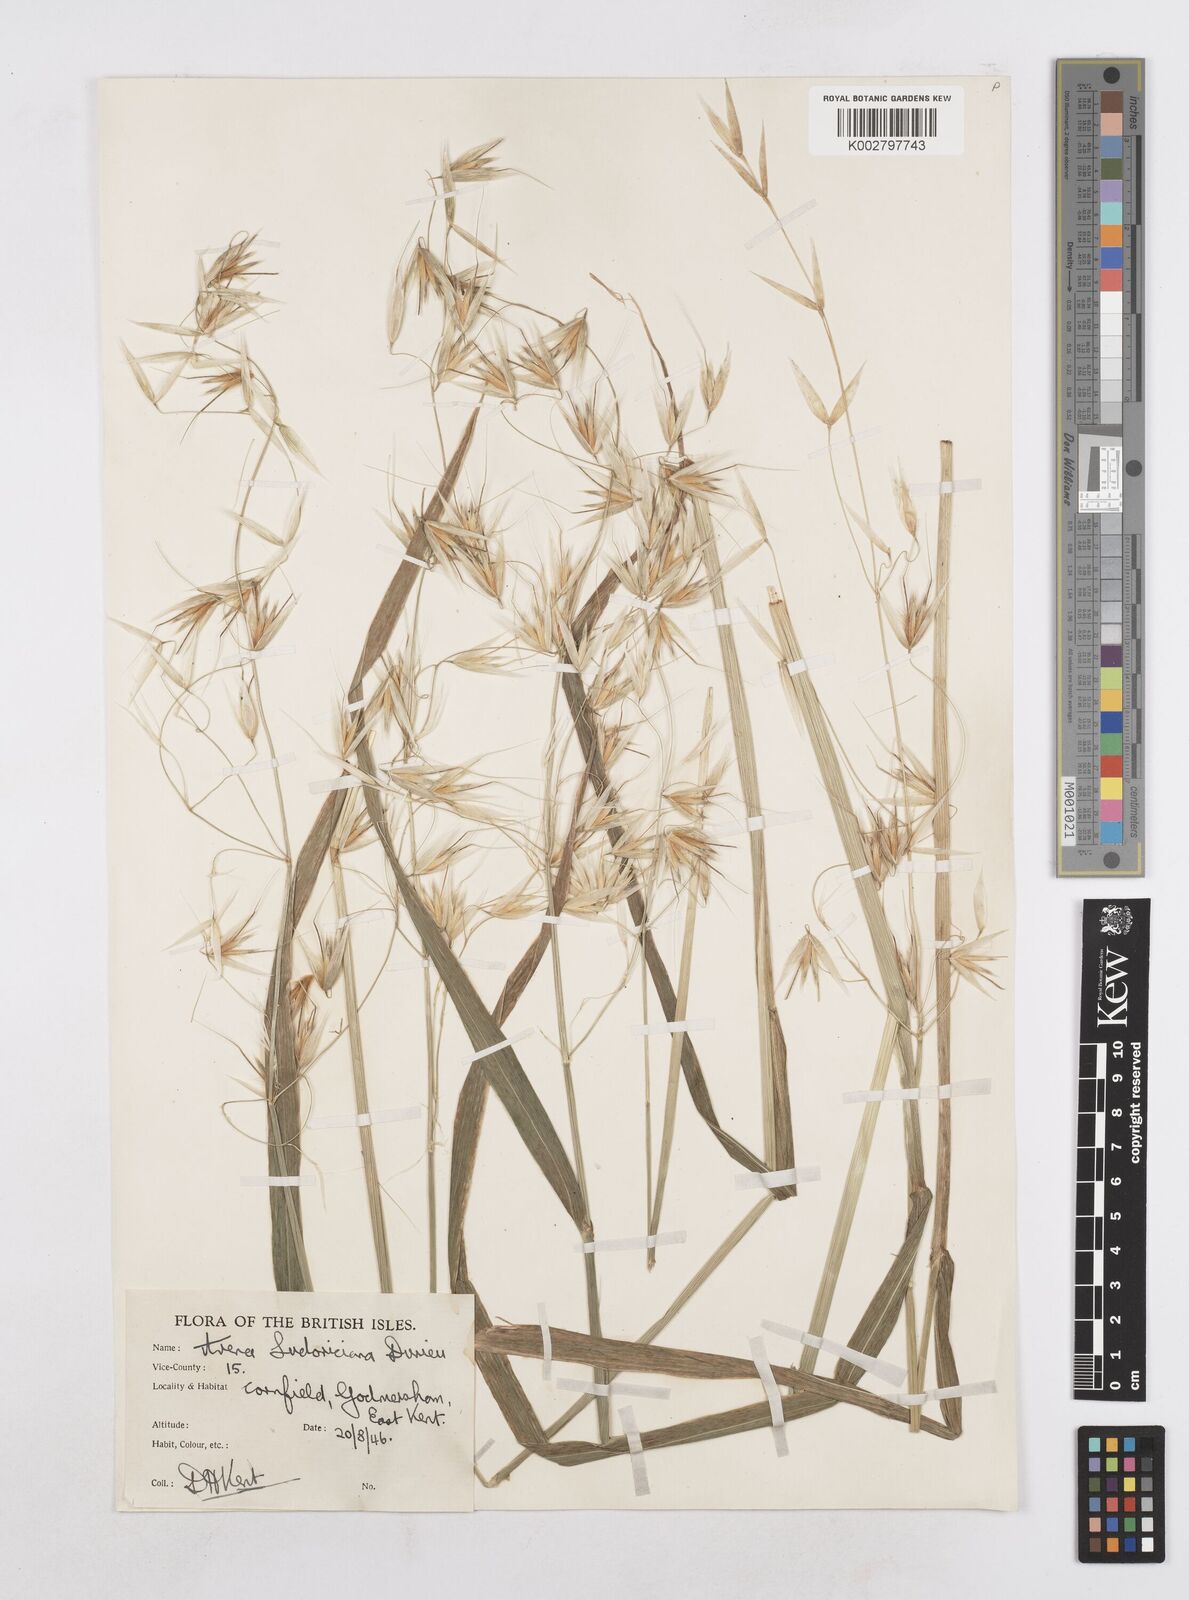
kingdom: Plantae
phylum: Tracheophyta
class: Liliopsida
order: Poales
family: Poaceae
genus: Avena
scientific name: Avena sterilis
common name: Animated oat
